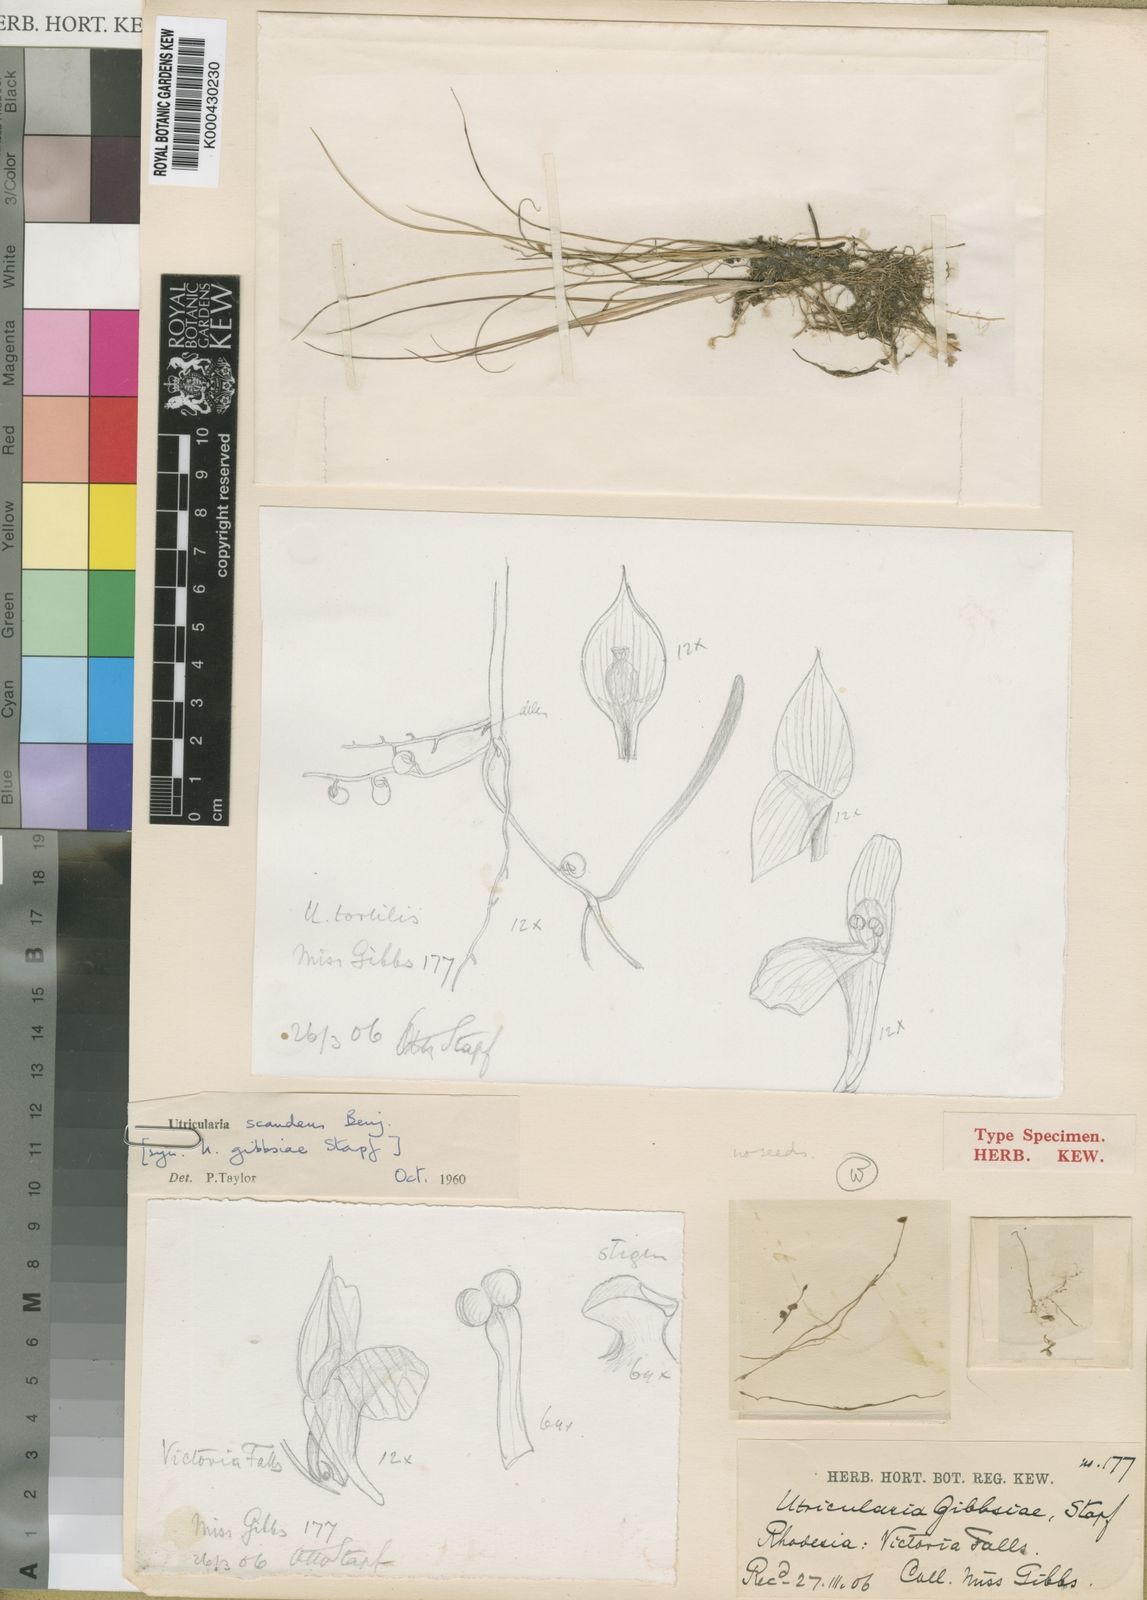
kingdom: Plantae
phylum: Tracheophyta
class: Magnoliopsida
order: Lamiales
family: Lentibulariaceae
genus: Utricularia
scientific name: Utricularia scandens
